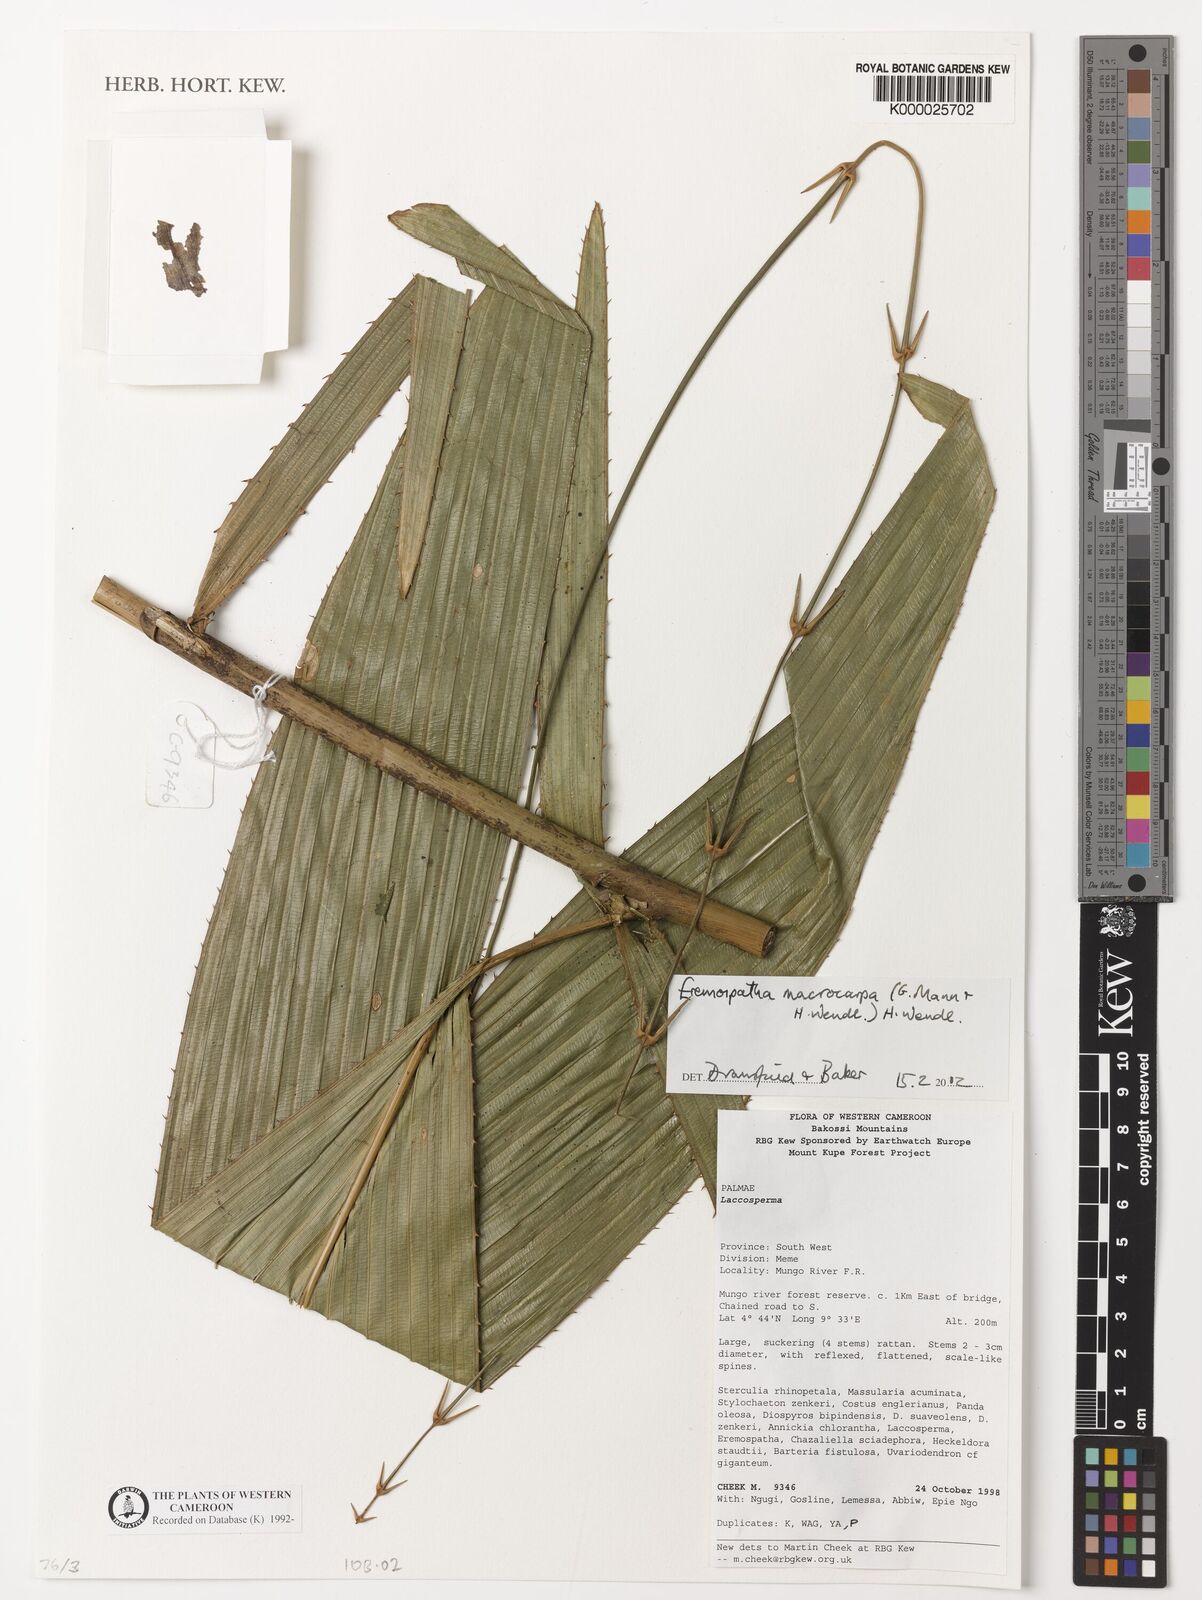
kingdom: Plantae
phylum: Tracheophyta
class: Liliopsida
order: Arecales
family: Arecaceae
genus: Eremospatha
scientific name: Eremospatha
